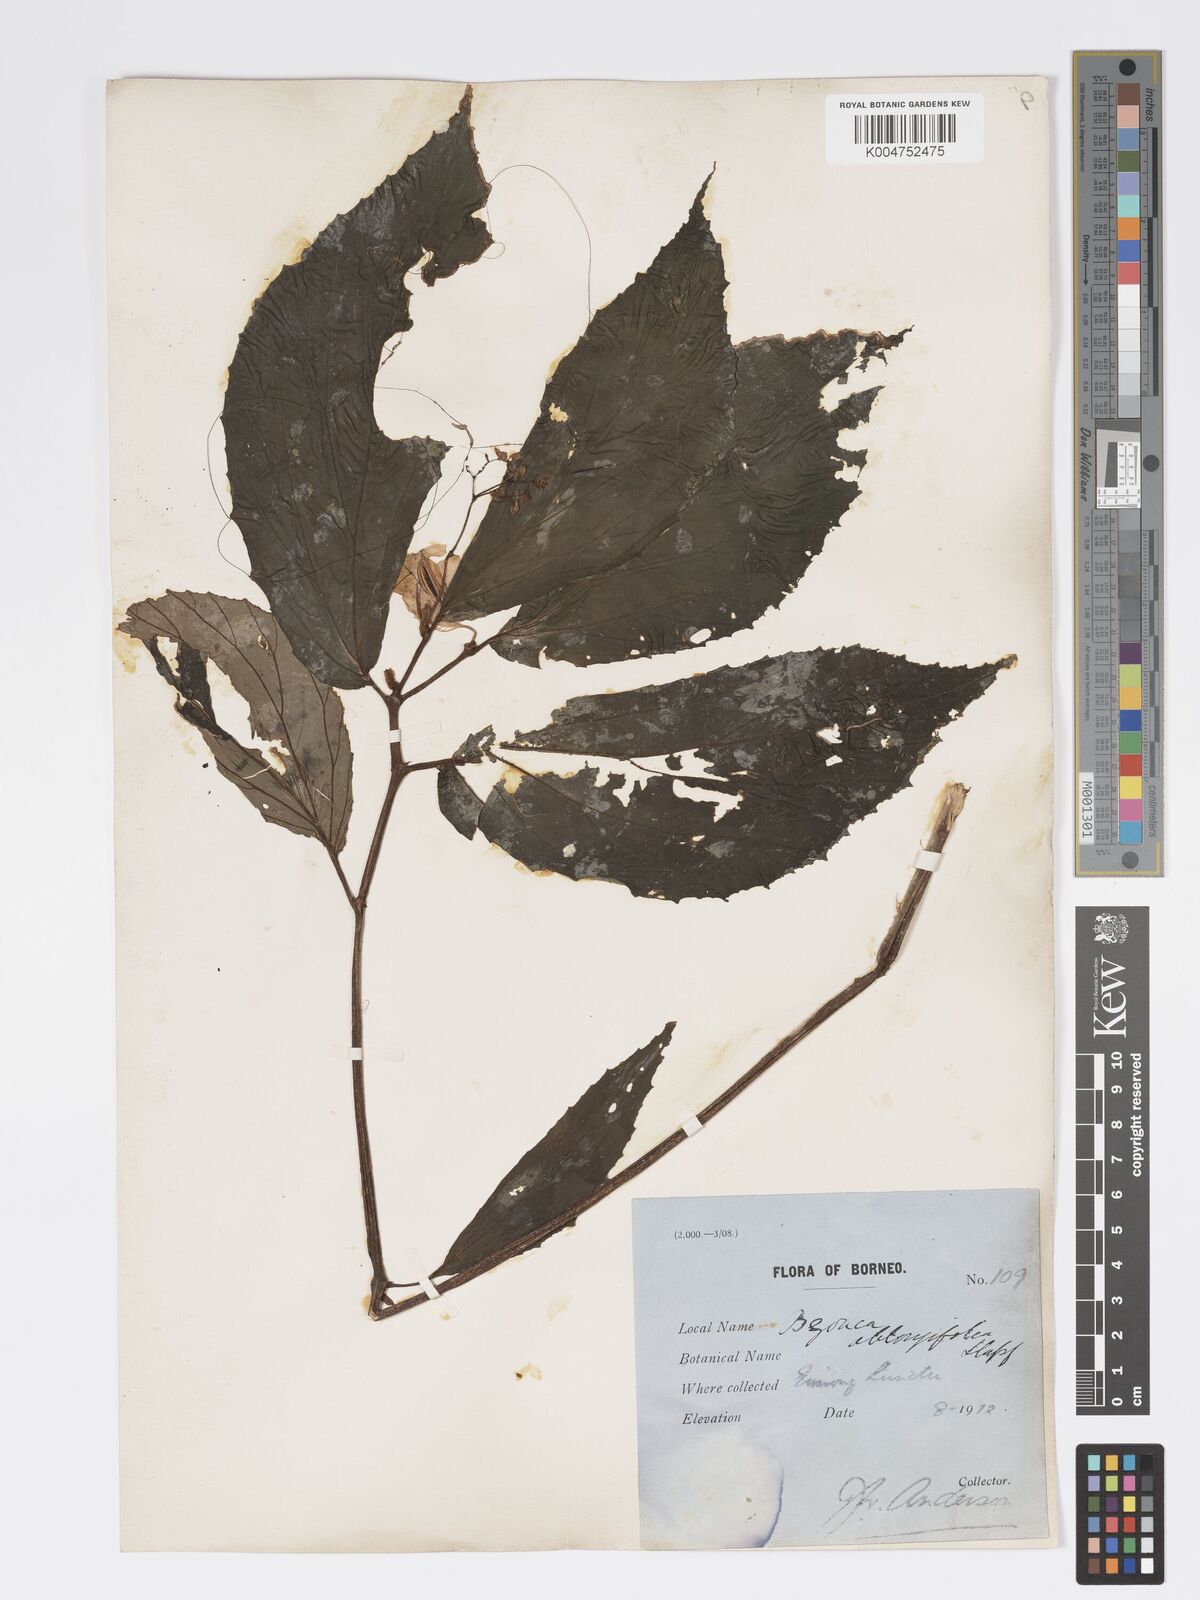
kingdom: Plantae
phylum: Tracheophyta
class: Magnoliopsida
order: Cucurbitales
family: Begoniaceae
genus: Begonia
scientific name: Begonia oblongifolia
